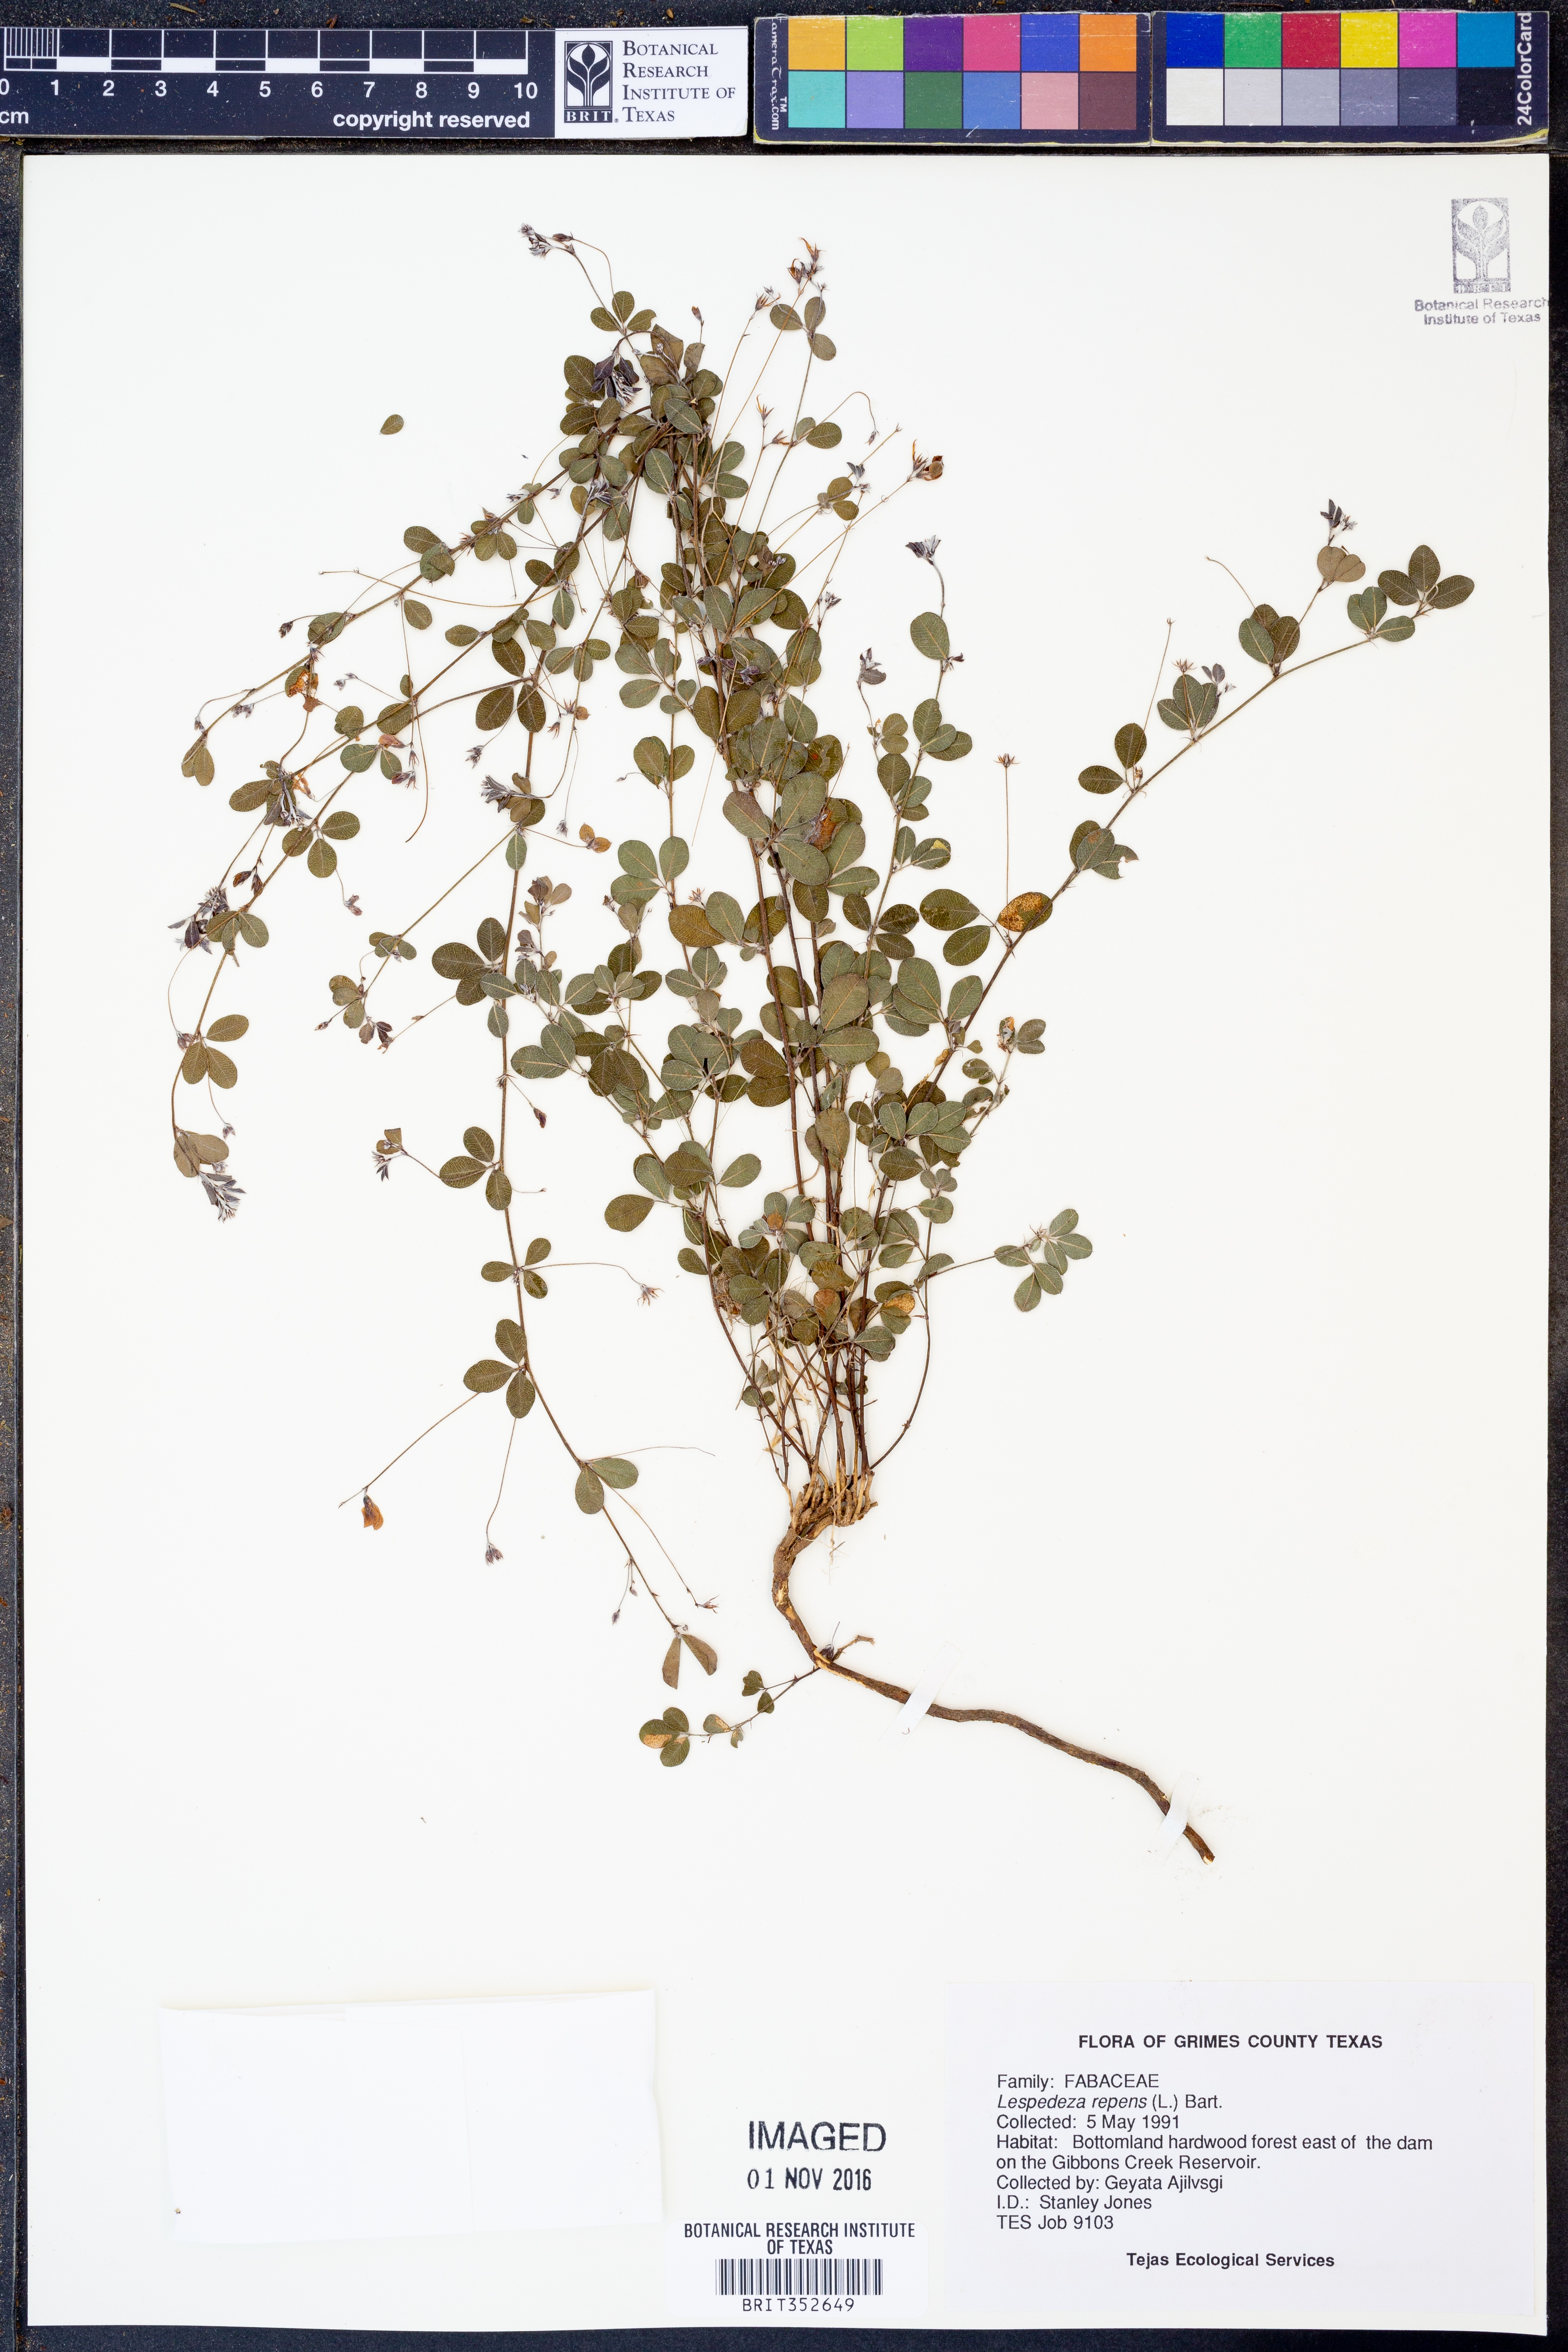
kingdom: Plantae
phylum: Tracheophyta
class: Magnoliopsida
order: Fabales
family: Fabaceae
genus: Lespedeza
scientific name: Lespedeza repens
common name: Creeping bush-clover
